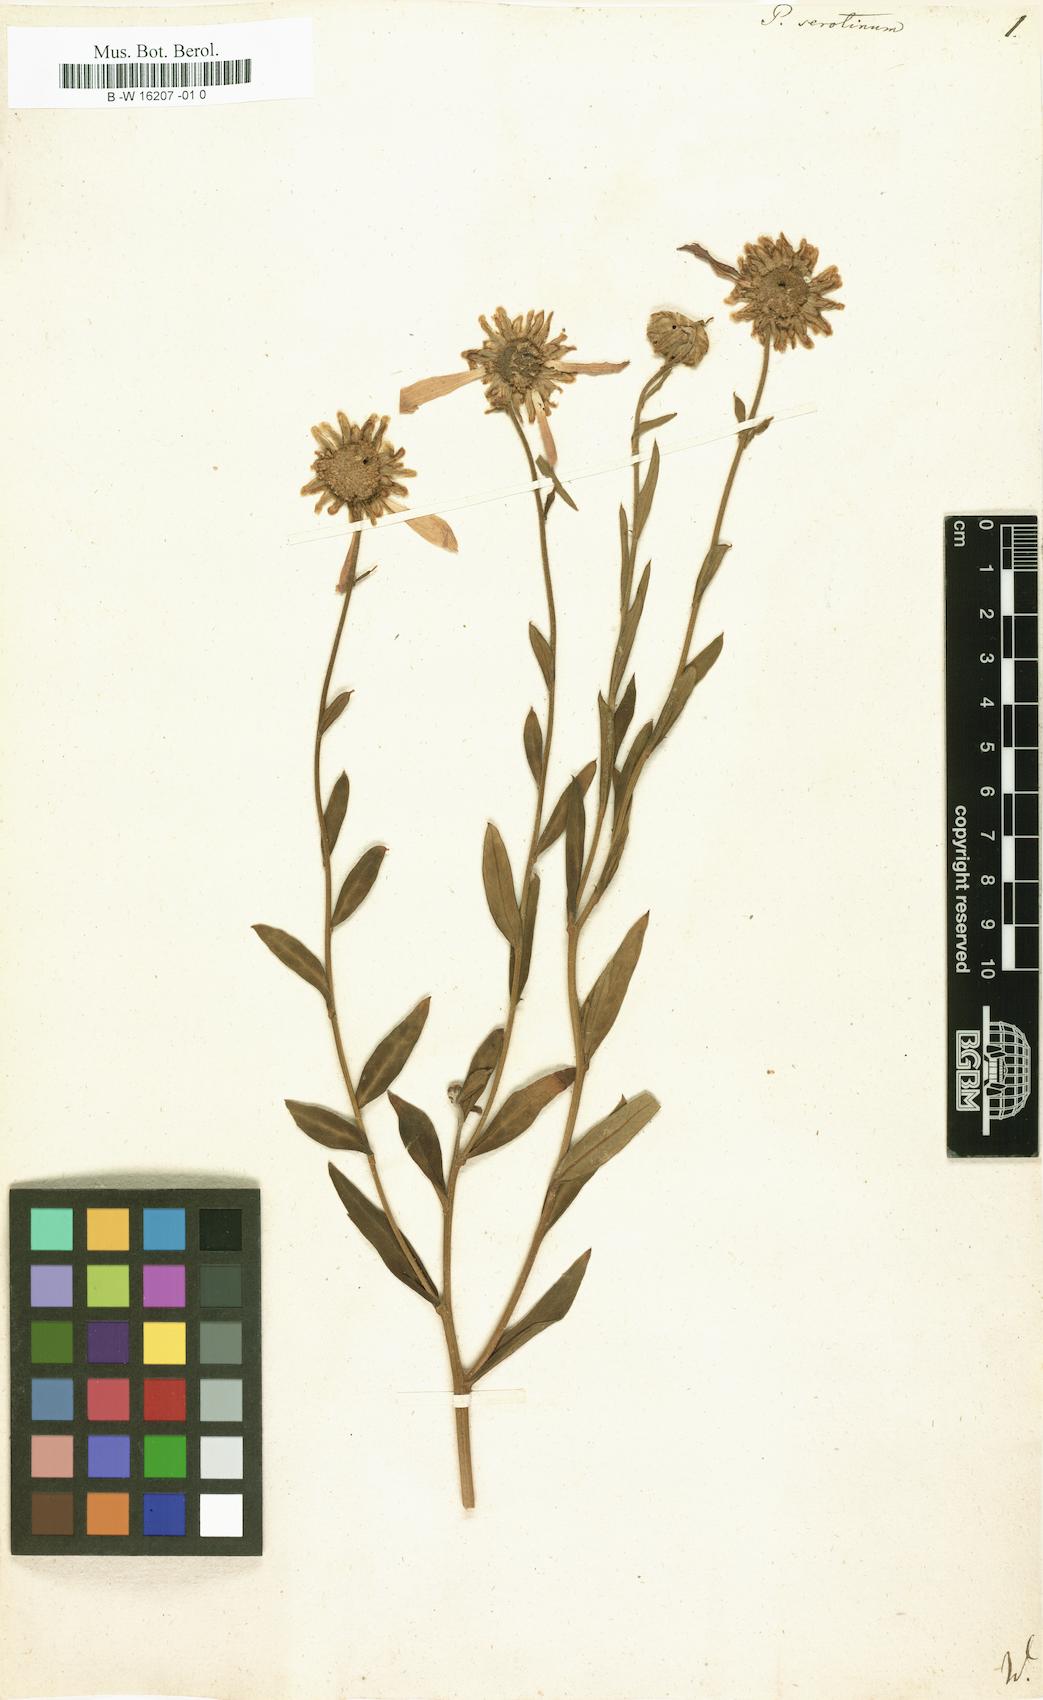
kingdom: Plantae
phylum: Tracheophyta
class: Magnoliopsida
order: Asterales
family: Asteraceae
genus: Tanacetum
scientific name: Tanacetum Pyrethrum serotinum
